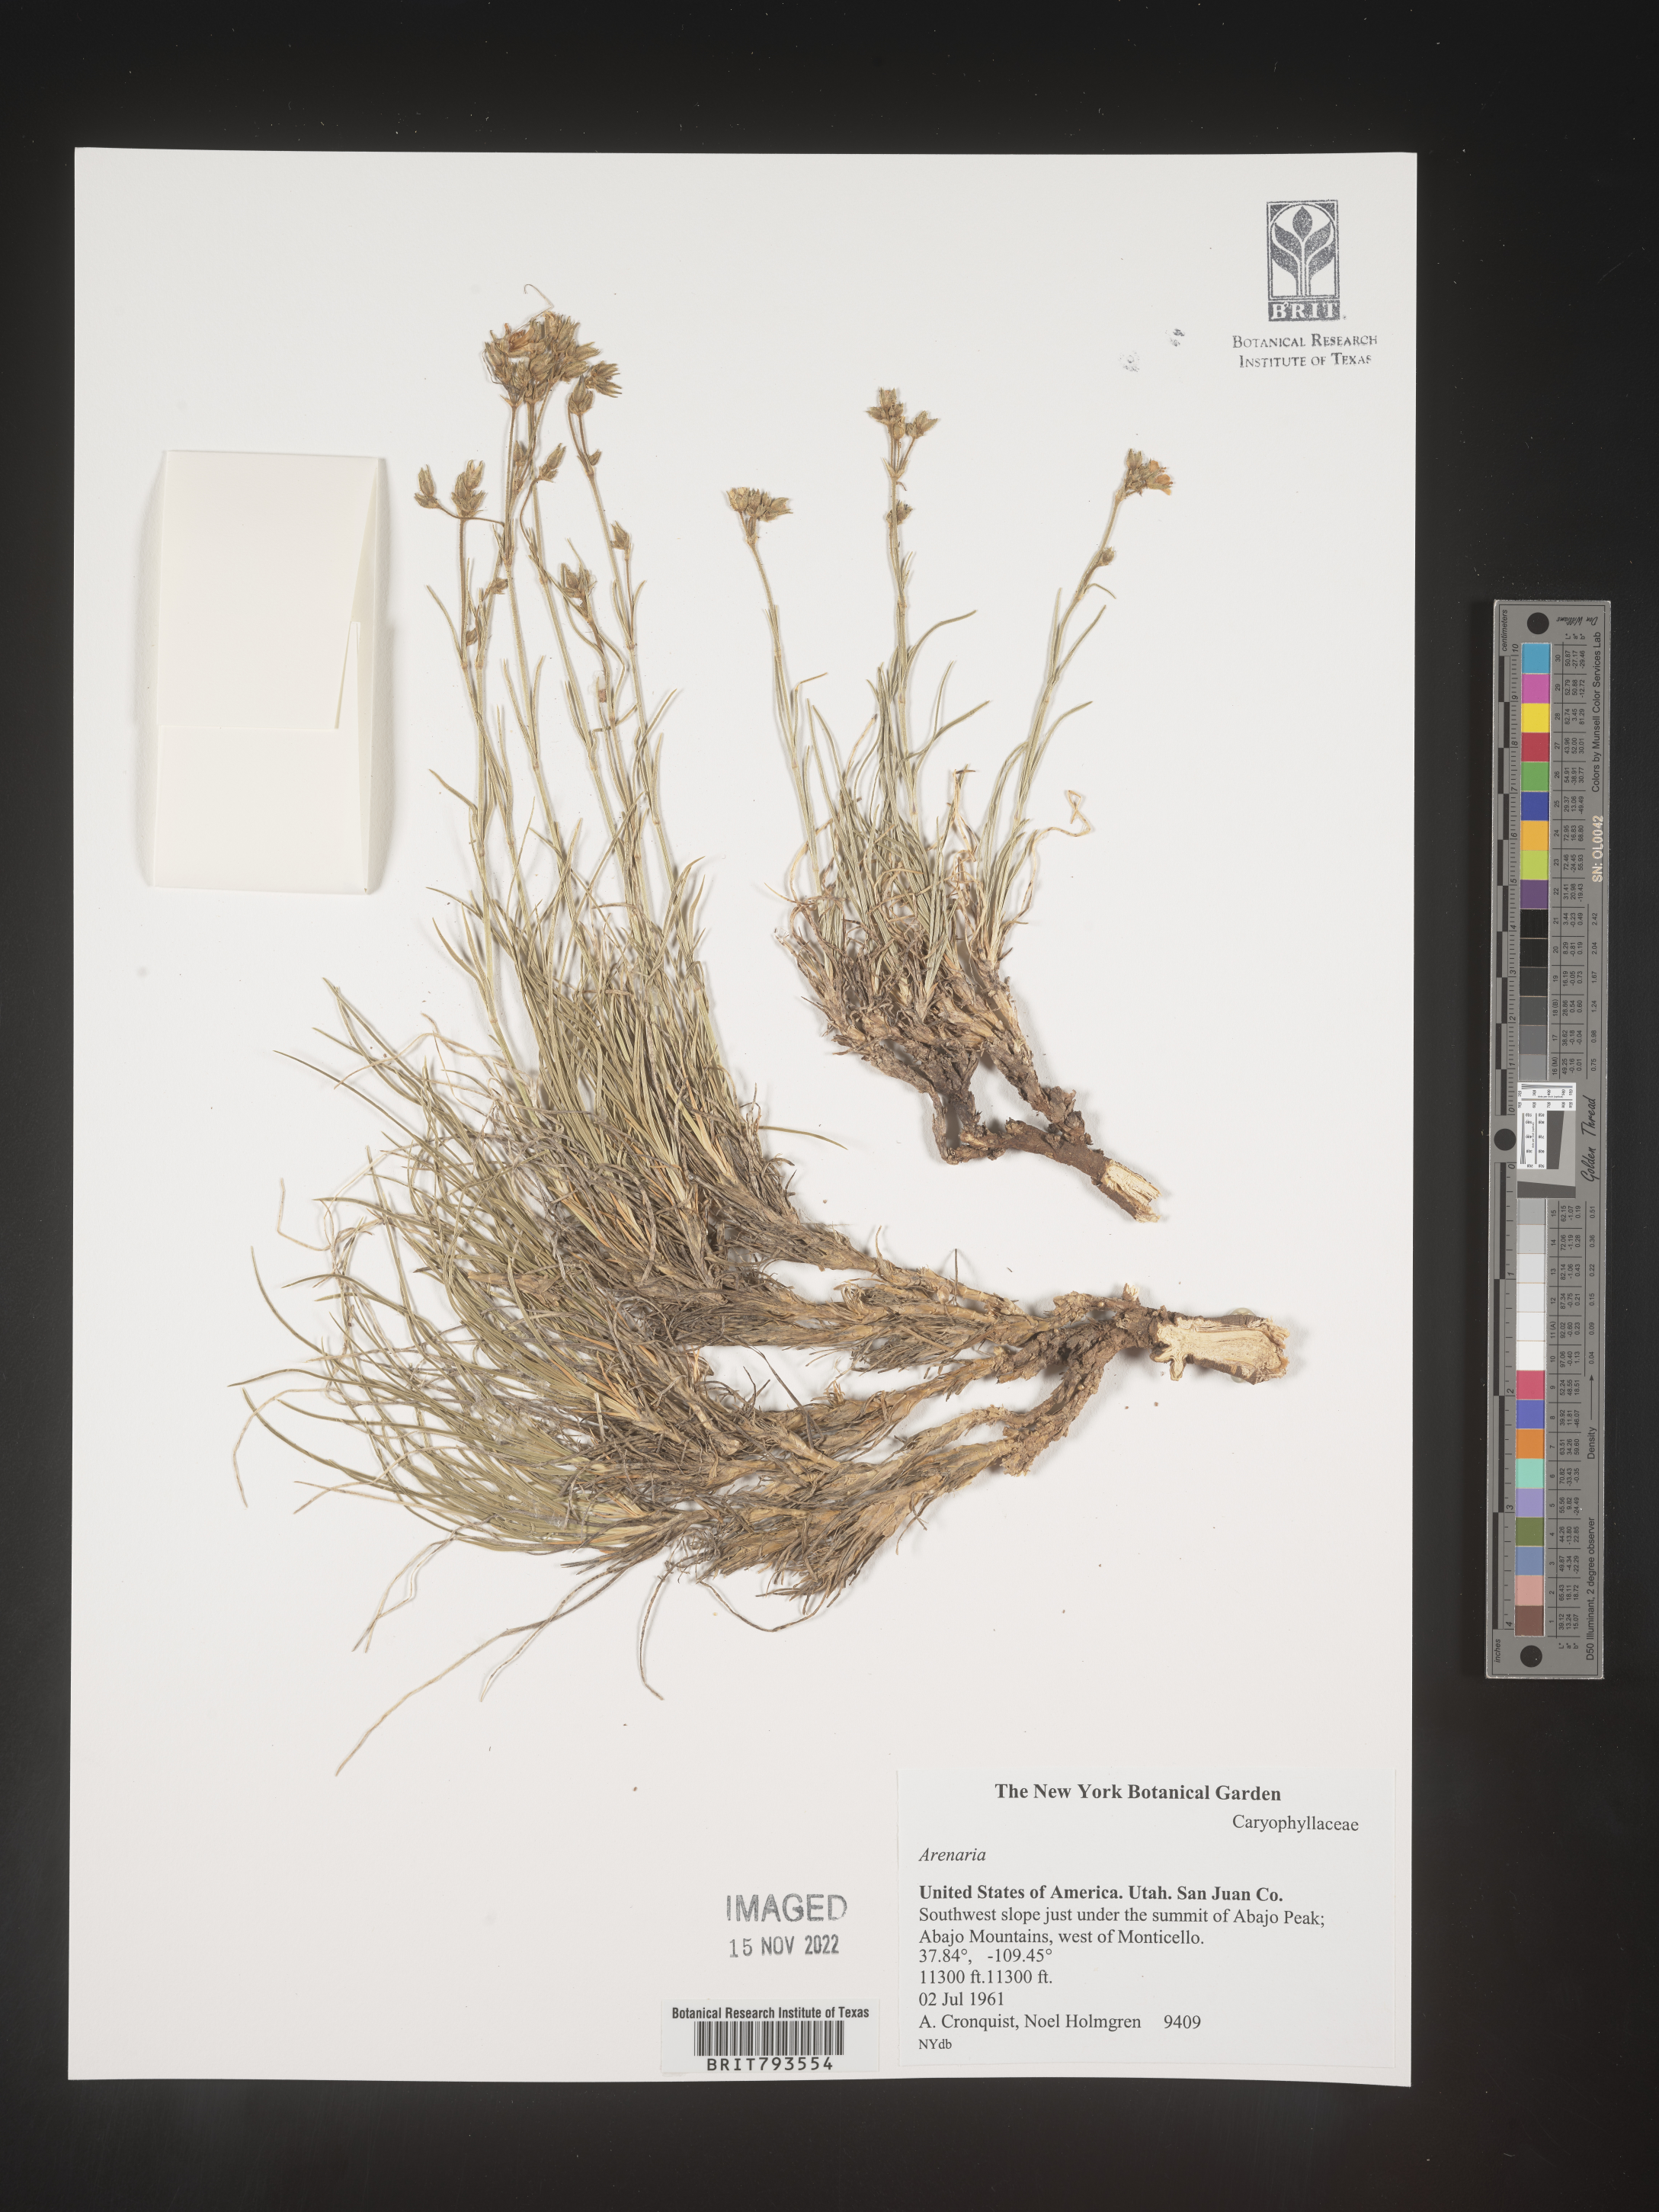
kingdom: Plantae
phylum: Tracheophyta
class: Magnoliopsida
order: Caryophyllales
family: Caryophyllaceae
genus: Arenaria
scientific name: Arenaria
